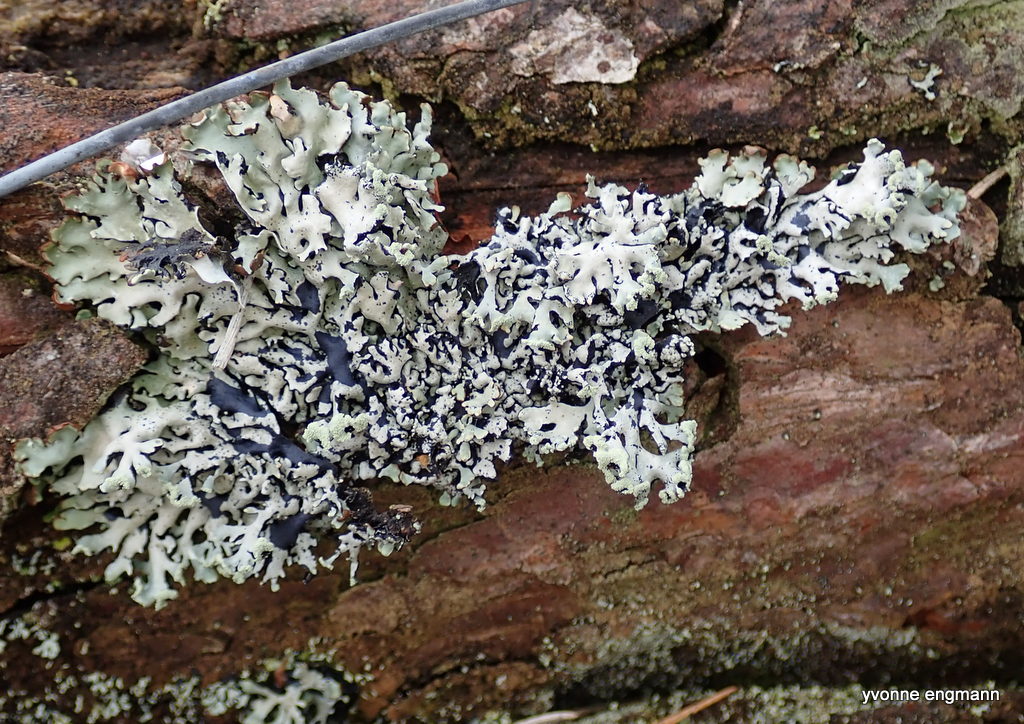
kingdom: Fungi
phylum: Ascomycota
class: Lecanoromycetes
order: Lecanorales
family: Parmeliaceae
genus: Hypogymnia
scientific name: Hypogymnia physodes
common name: almindelig kvistlav
